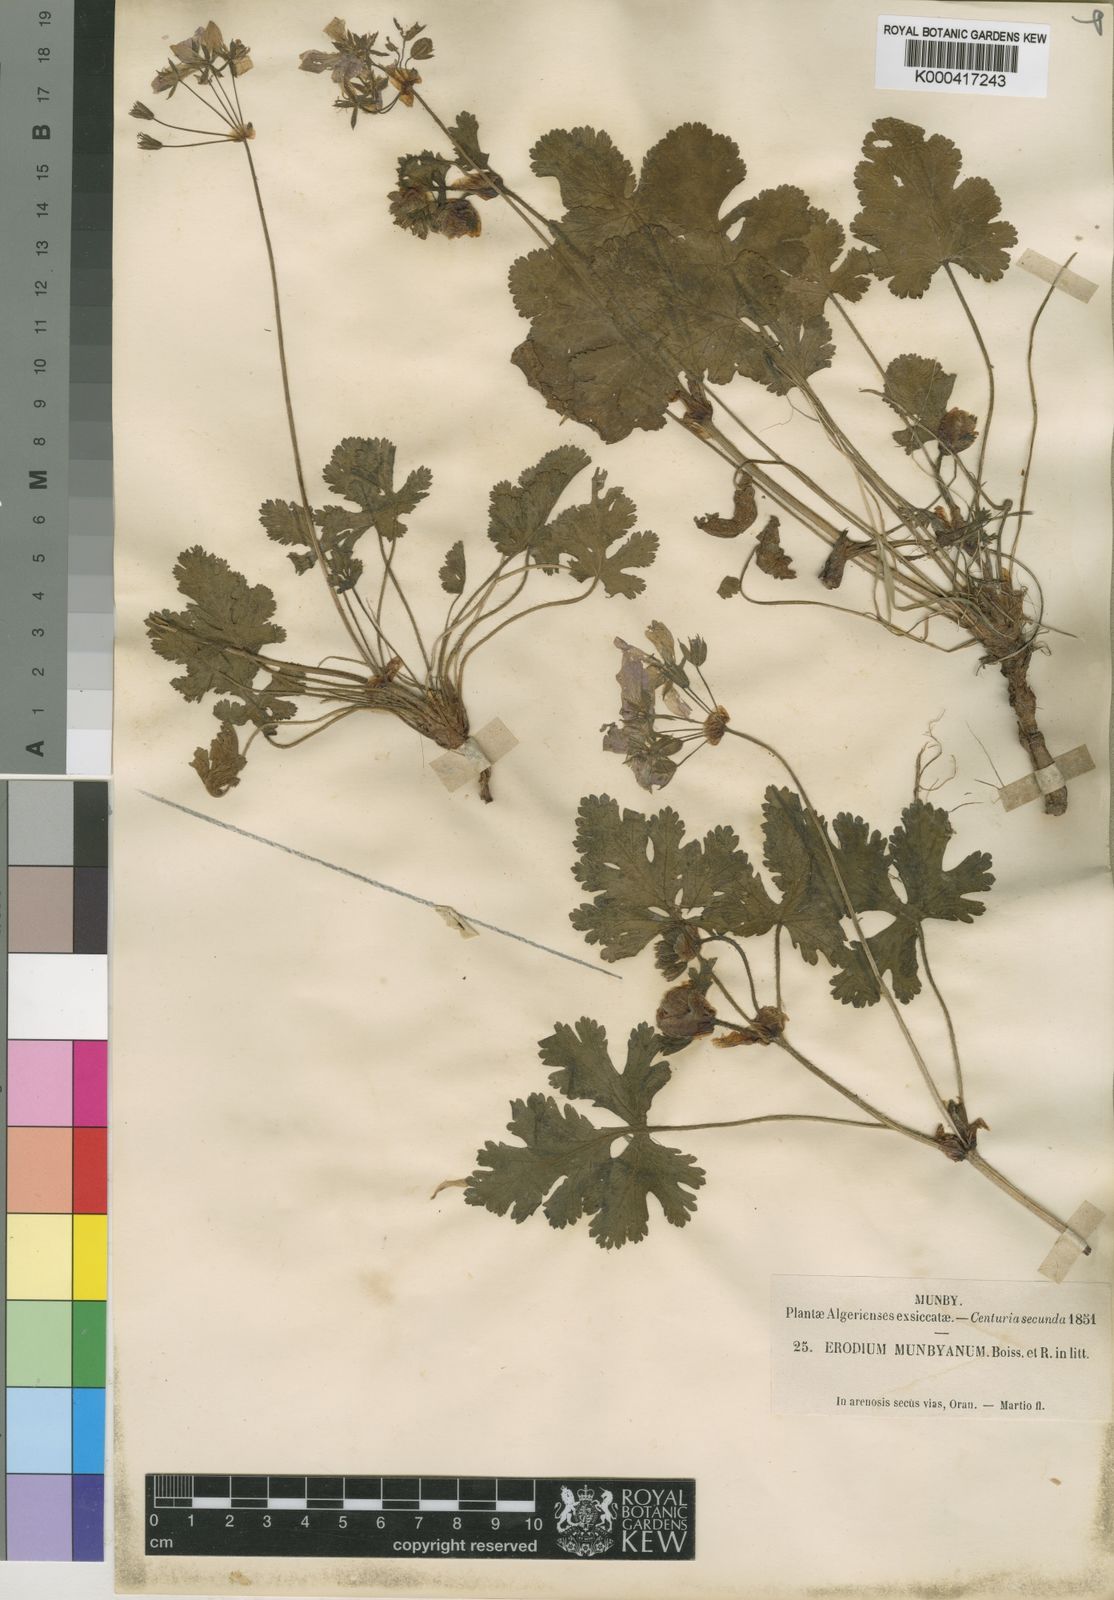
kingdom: Plantae
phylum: Tracheophyta
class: Magnoliopsida
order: Geraniales
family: Geraniaceae
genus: Erodium
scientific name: Erodium munbyanum
